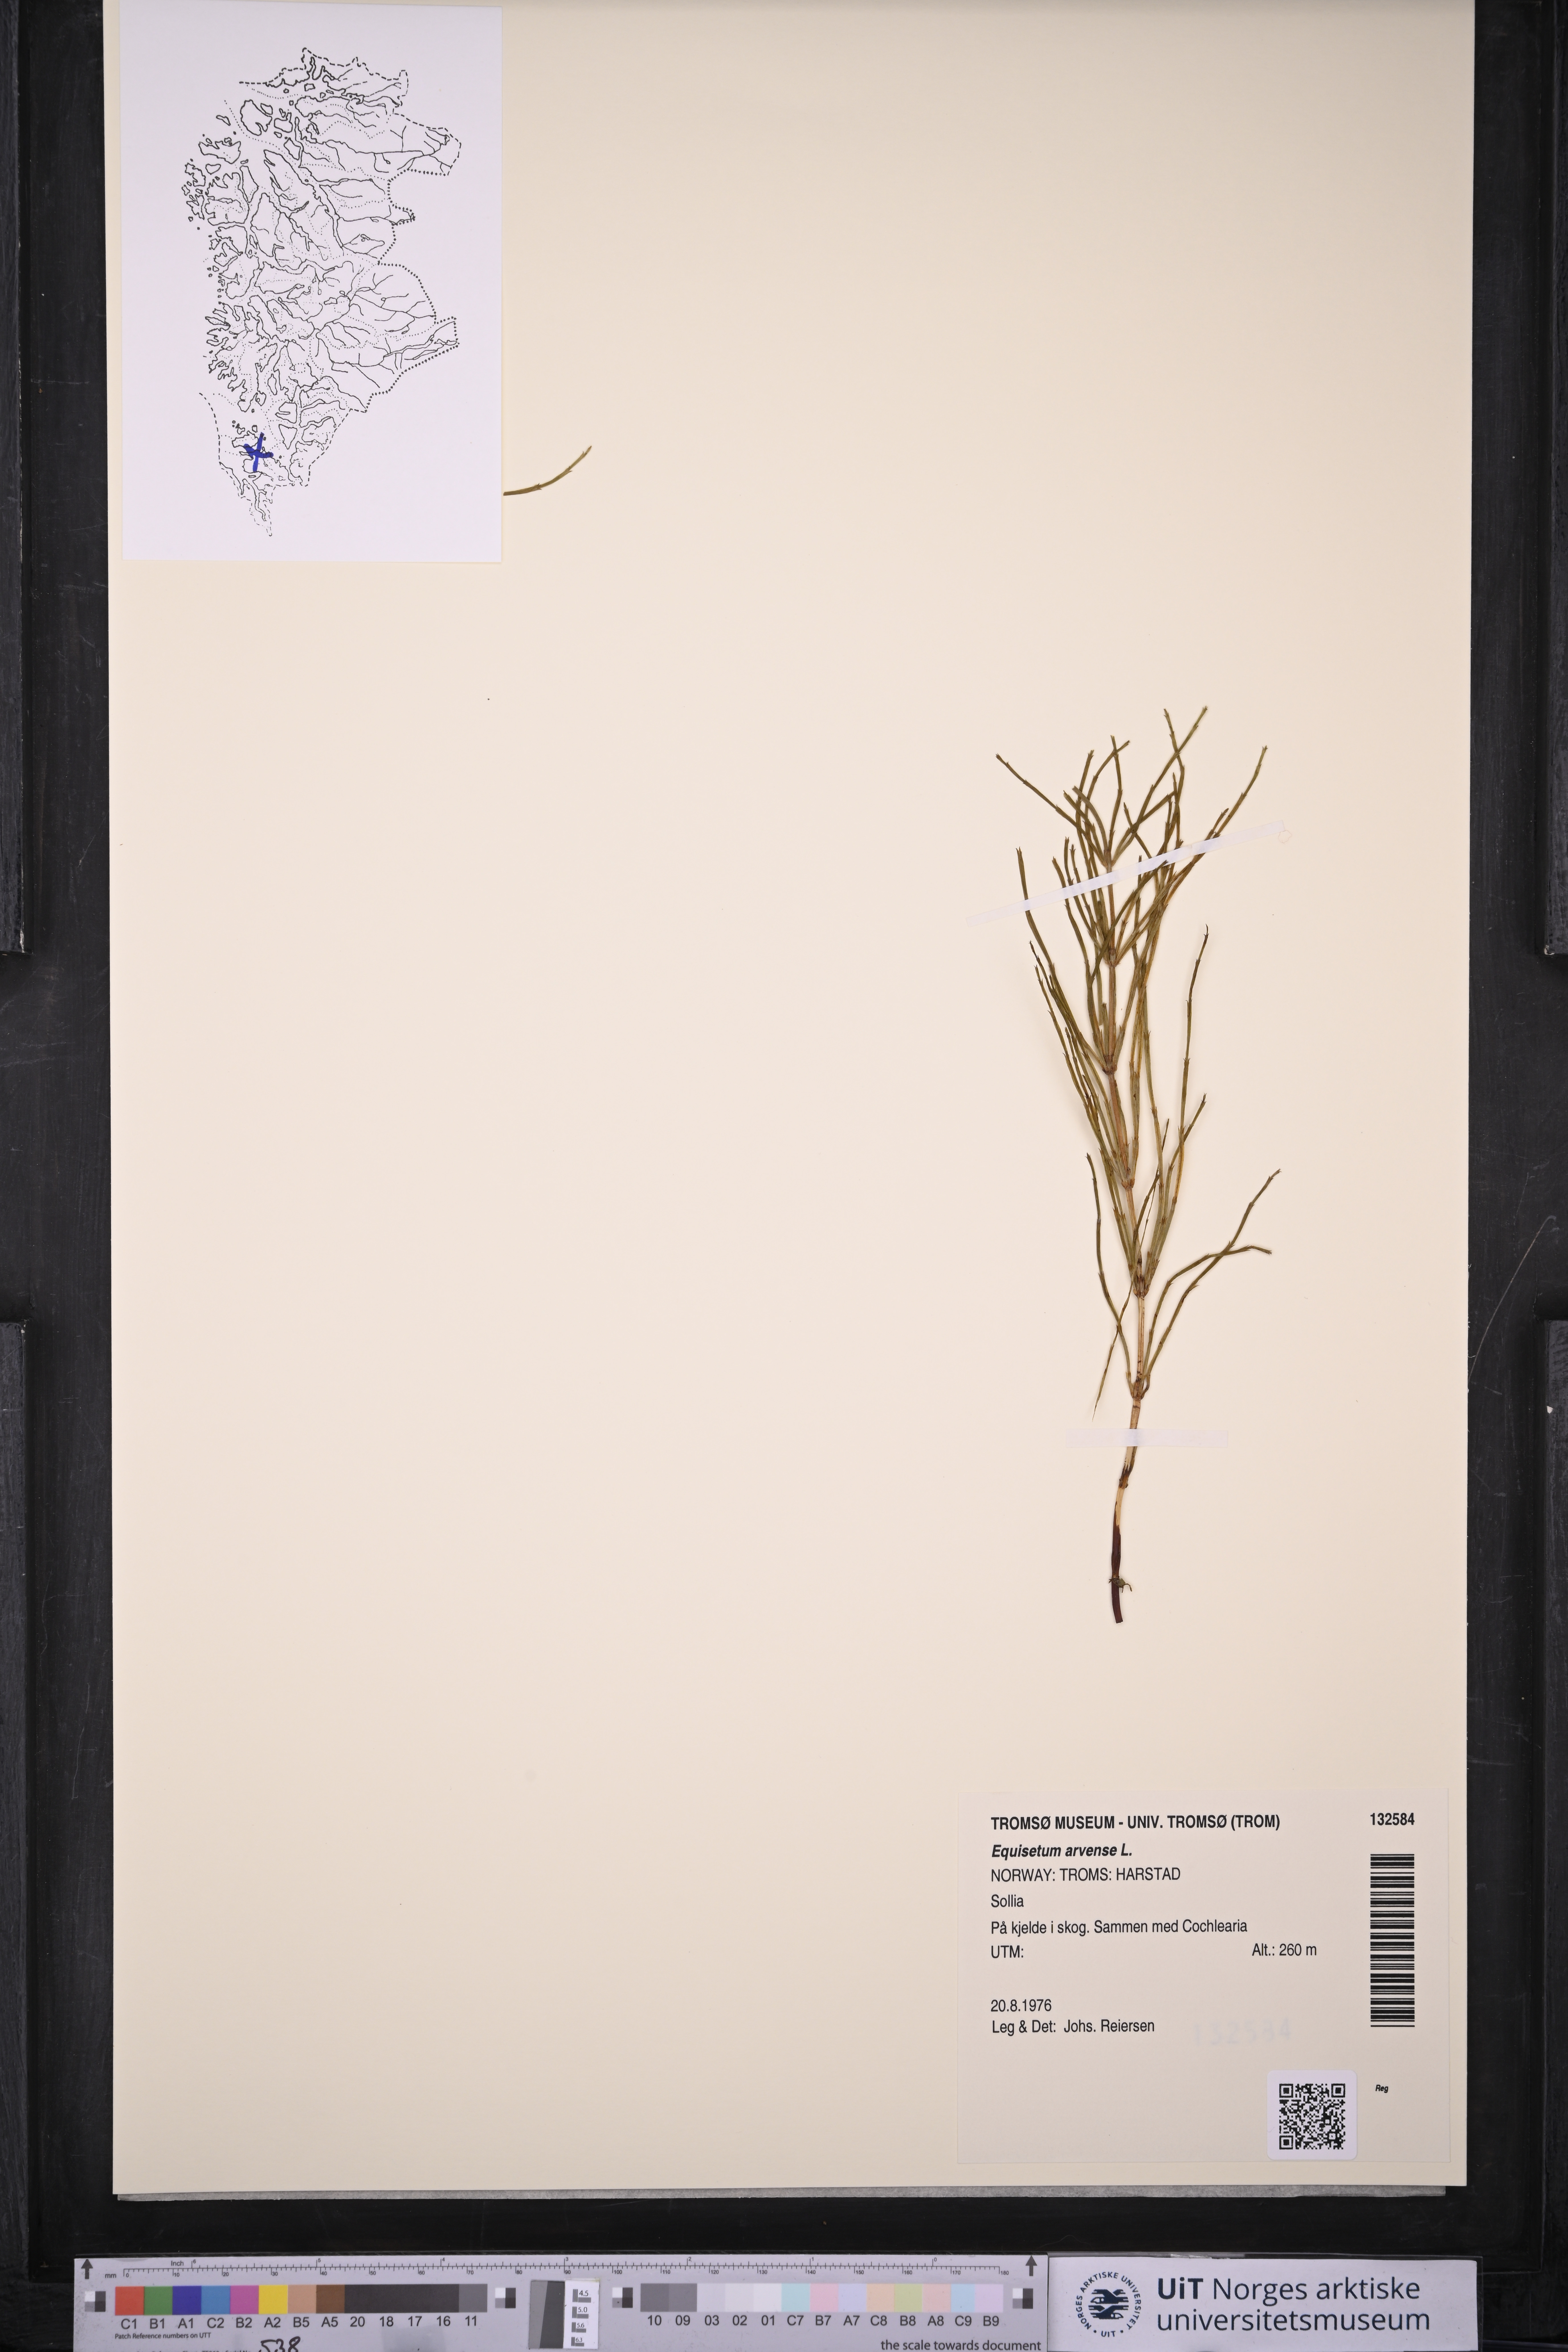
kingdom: Plantae
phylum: Tracheophyta
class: Polypodiopsida
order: Equisetales
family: Equisetaceae
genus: Equisetum
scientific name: Equisetum arvense
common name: Field horsetail
